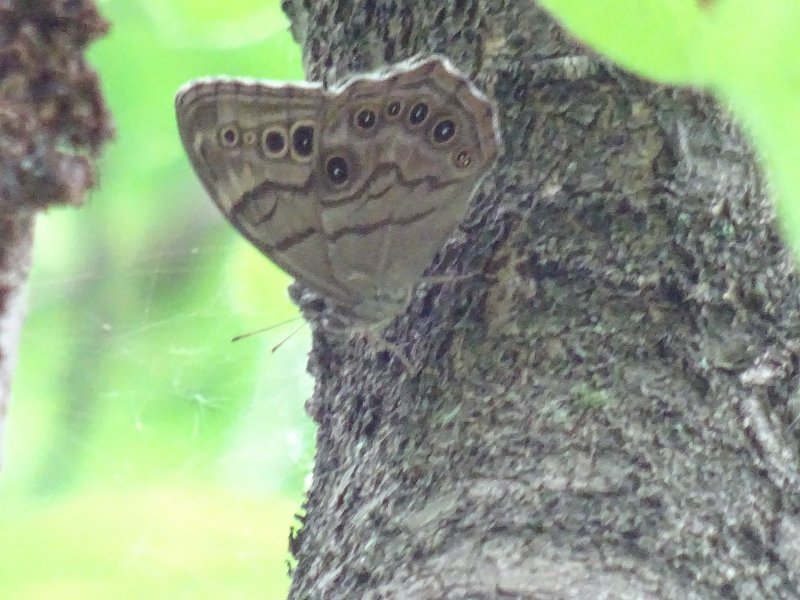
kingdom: Animalia
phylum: Arthropoda
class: Insecta
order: Lepidoptera
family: Nymphalidae
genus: Lethe
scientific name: Lethe anthedon
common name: Northern Pearly-Eye
